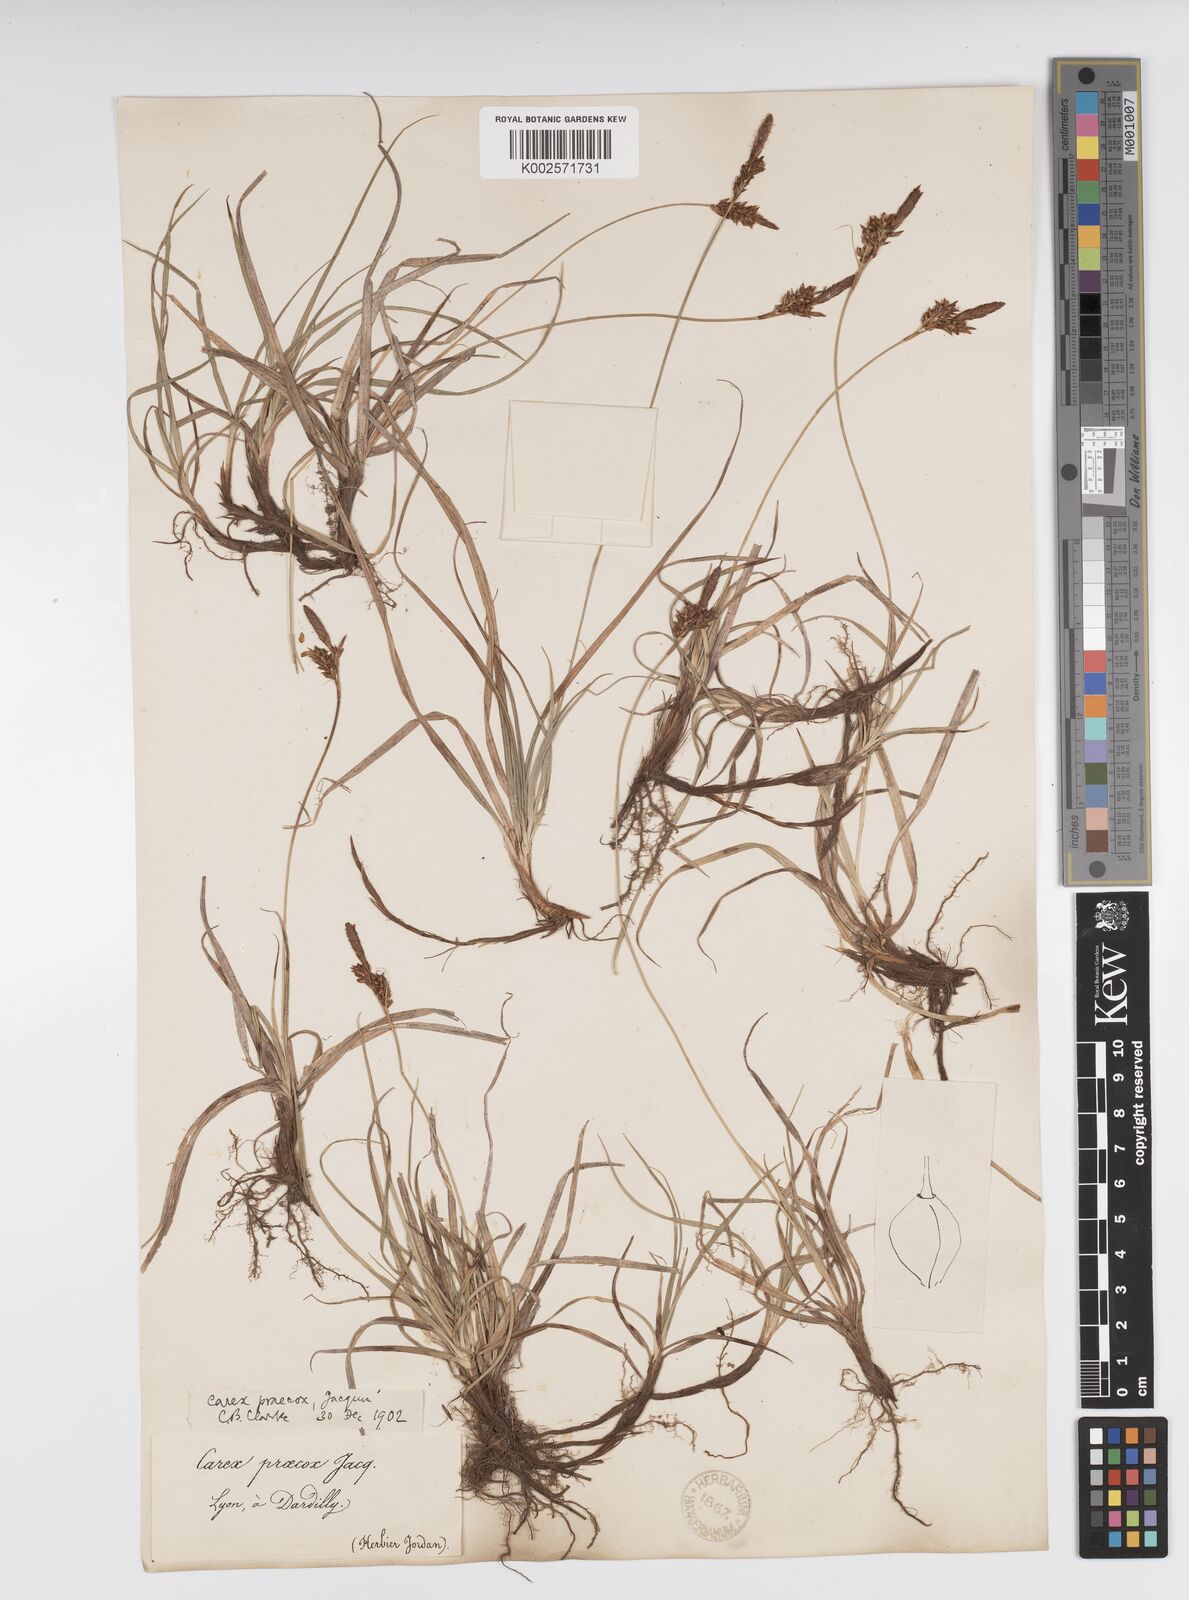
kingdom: Plantae
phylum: Tracheophyta
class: Liliopsida
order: Poales
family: Cyperaceae
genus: Carex
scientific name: Carex caryophyllea
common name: Spring sedge
